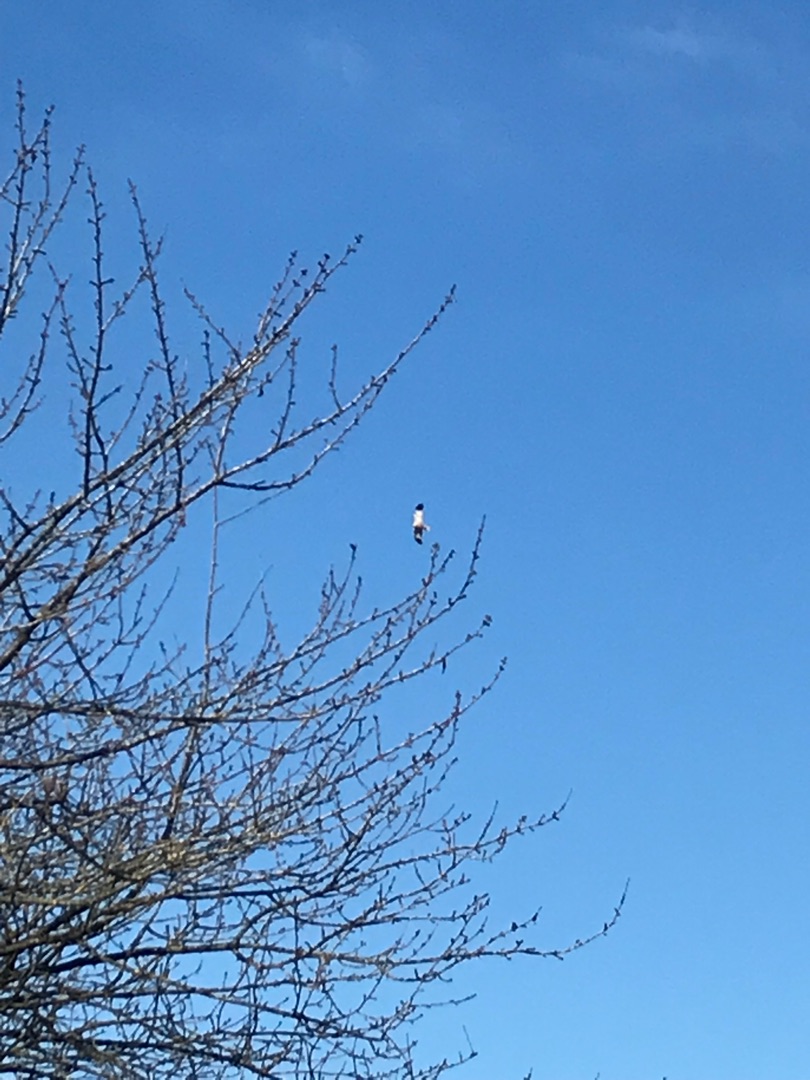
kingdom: Animalia
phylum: Chordata
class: Aves
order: Accipitriformes
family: Accipitridae
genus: Circus
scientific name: Circus aeruginosus
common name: Rørhøg
